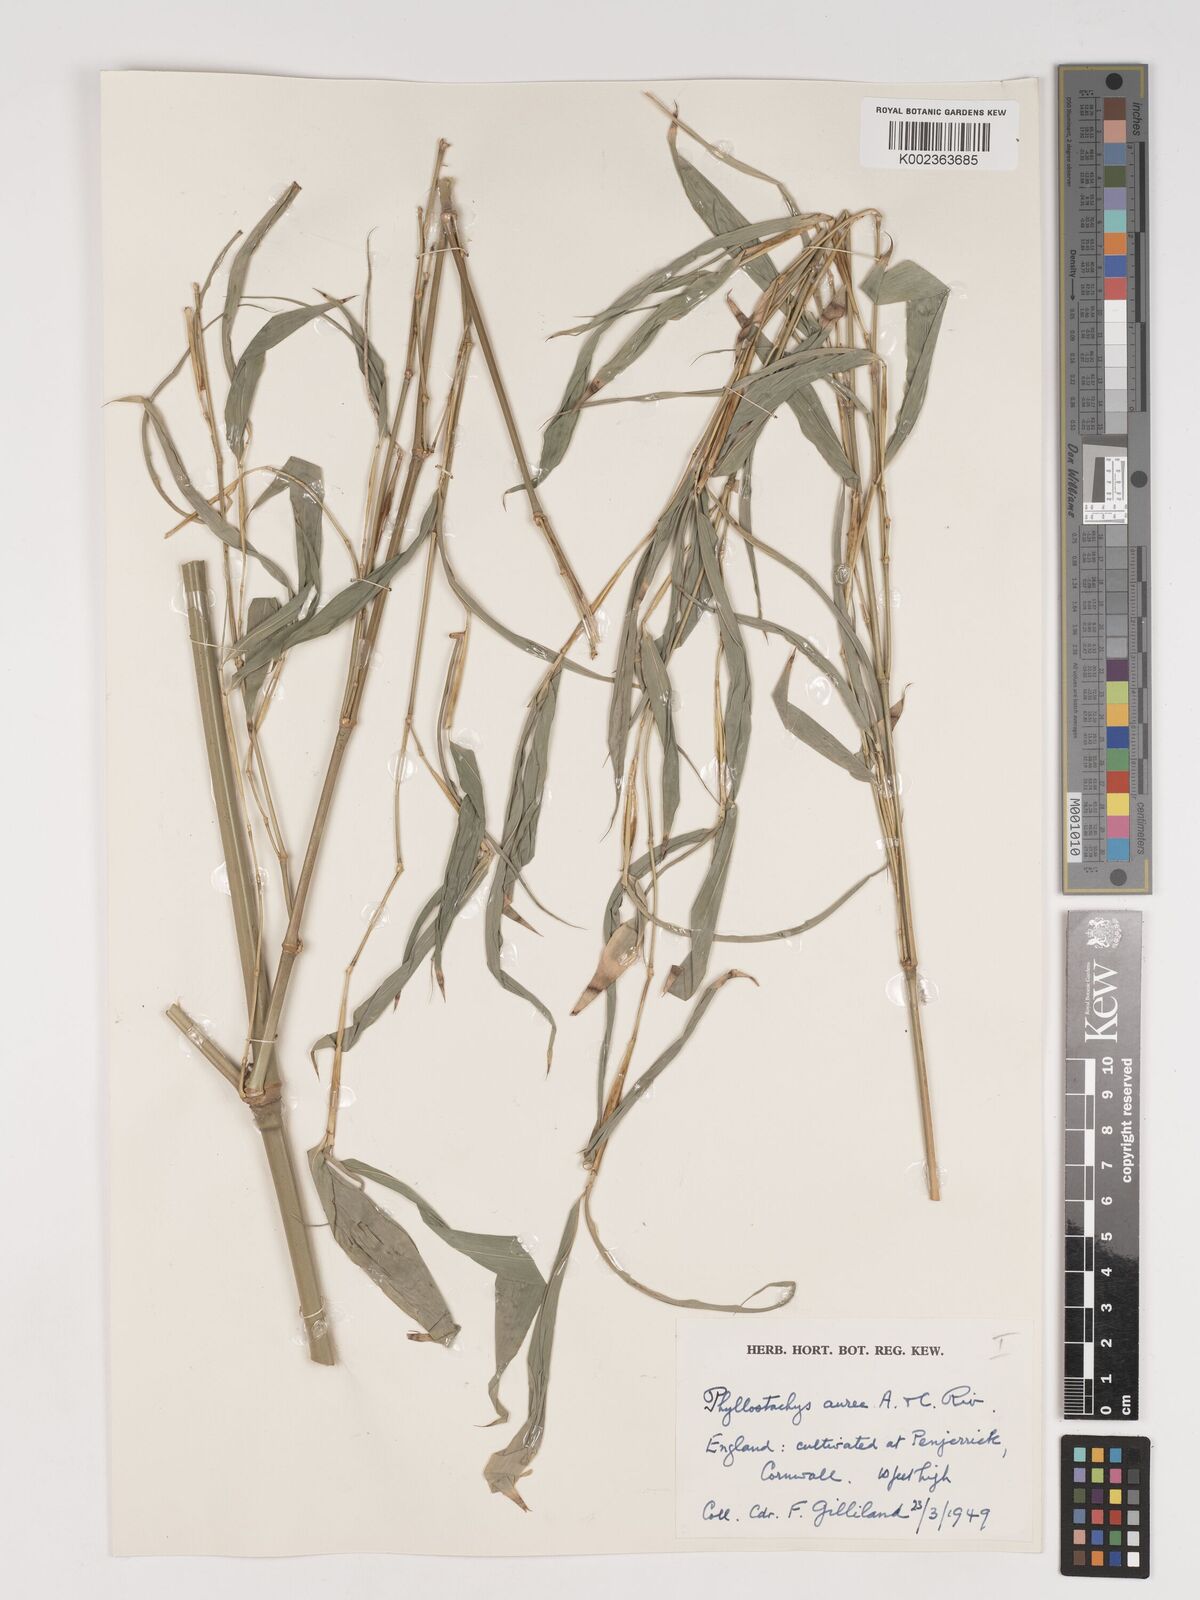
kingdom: Plantae
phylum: Tracheophyta
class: Liliopsida
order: Poales
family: Poaceae
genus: Phyllostachys
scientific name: Phyllostachys aurea
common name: Golden bamboo
